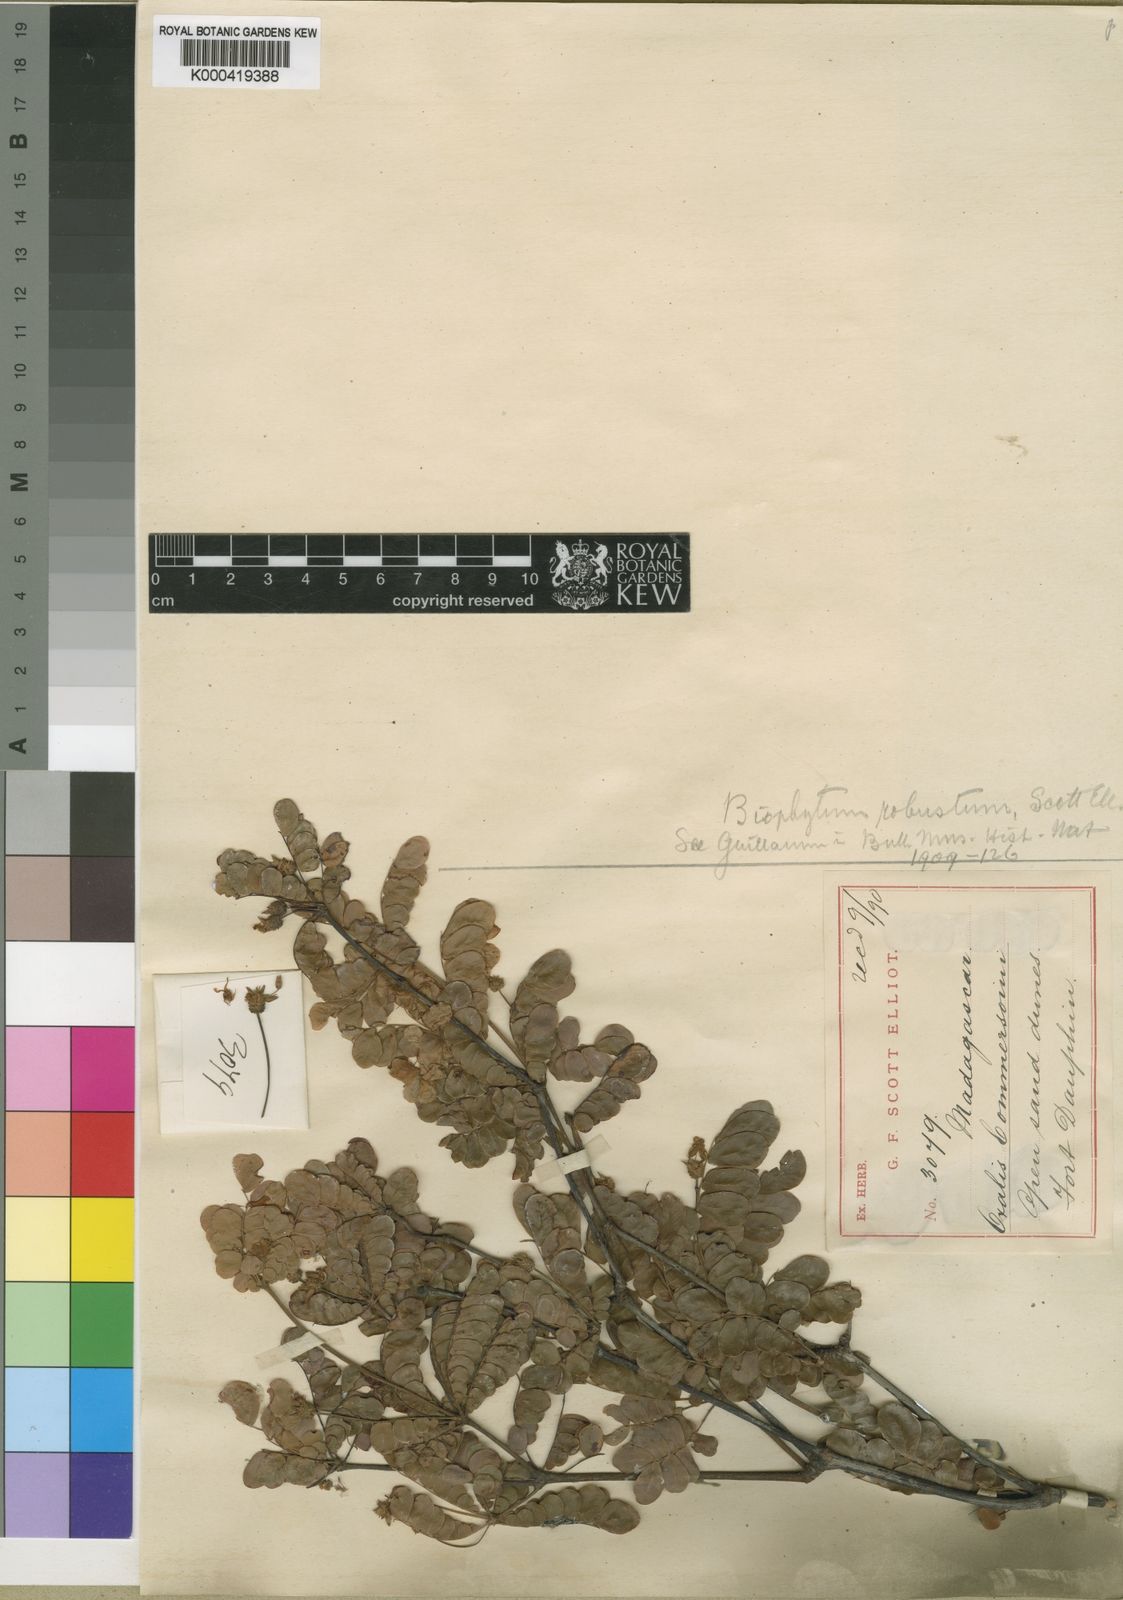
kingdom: Plantae
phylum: Tracheophyta
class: Magnoliopsida
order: Oxalidales
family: Oxalidaceae
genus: Biophytum
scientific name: Biophytum
